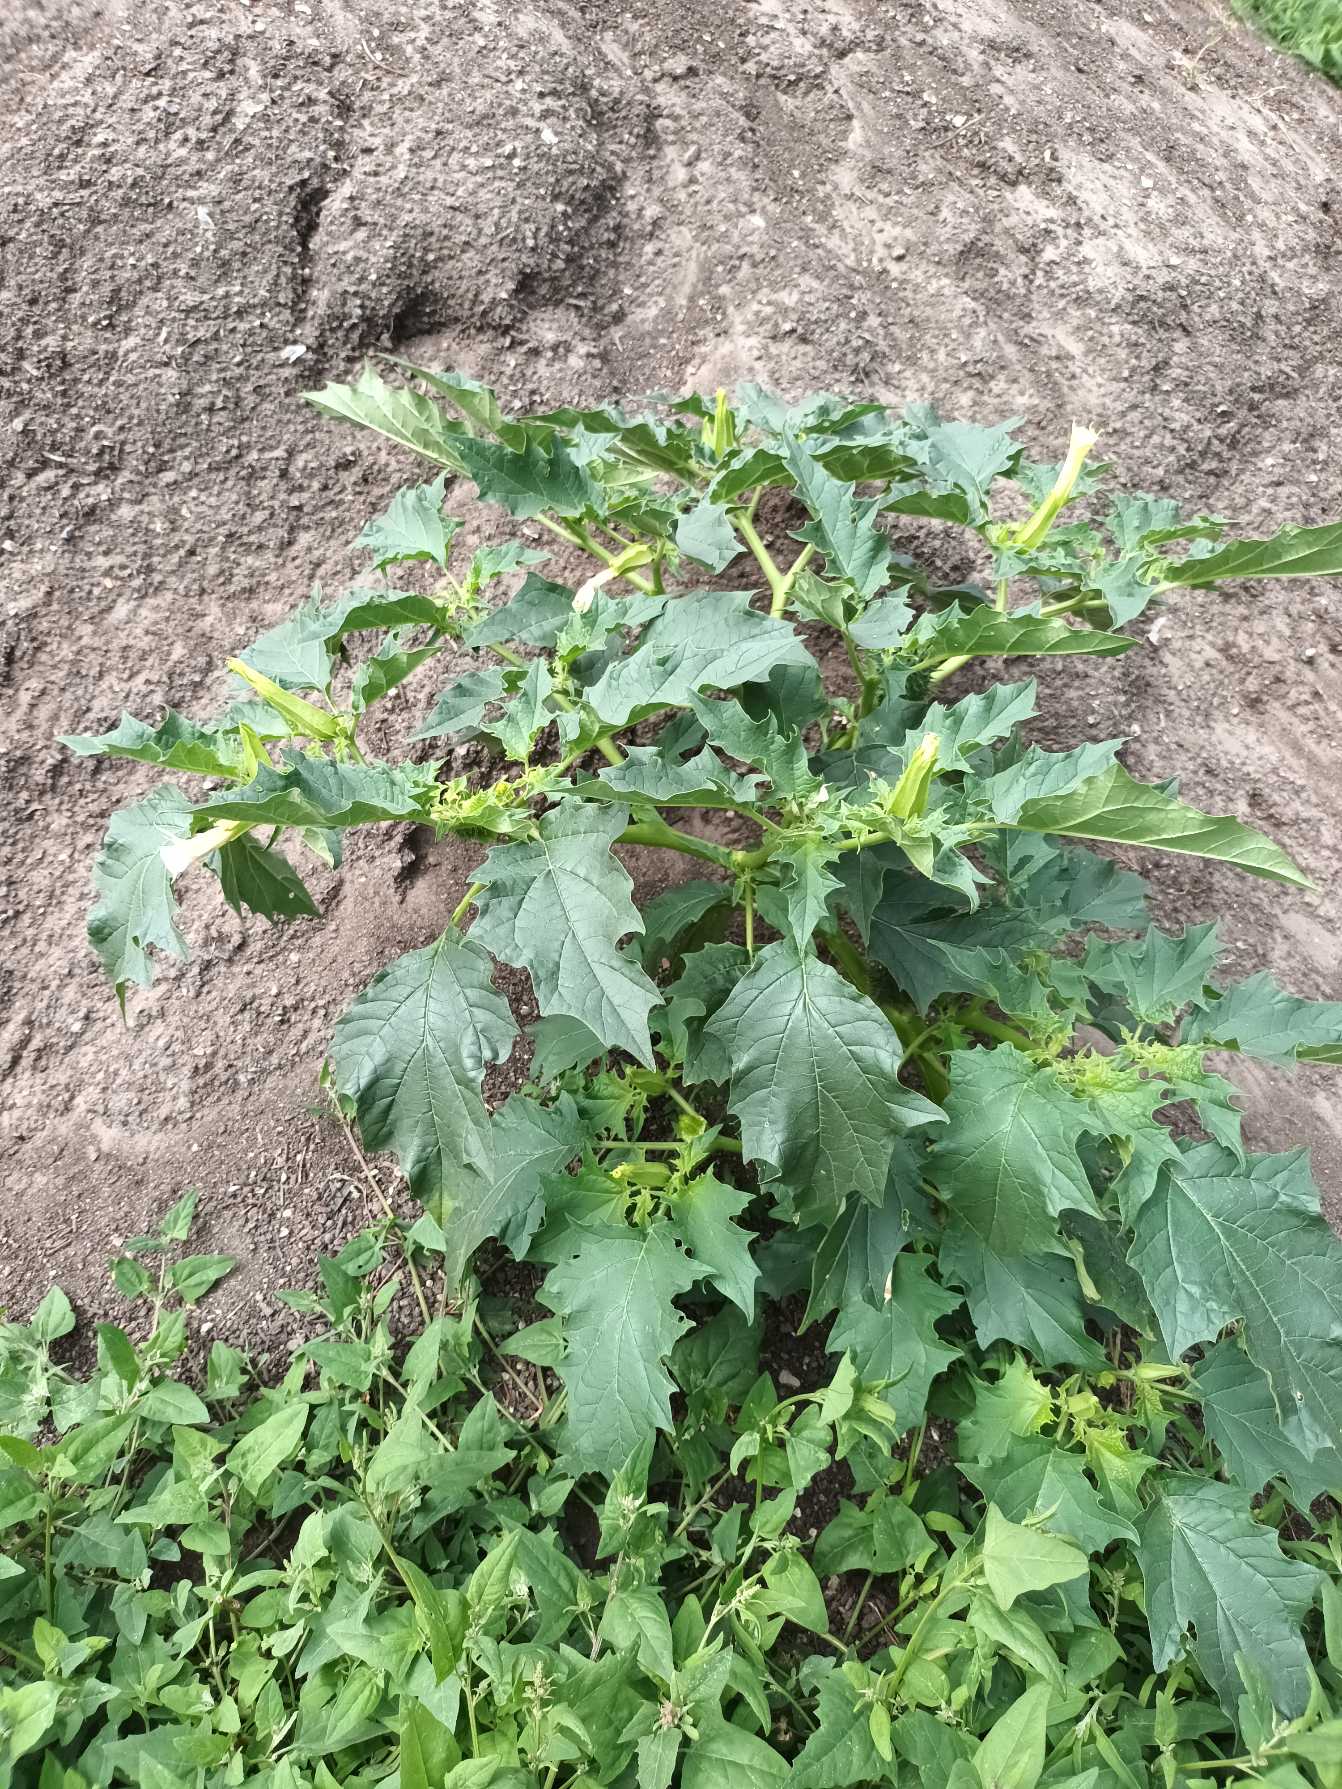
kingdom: Plantae
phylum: Tracheophyta
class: Magnoliopsida
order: Solanales
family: Solanaceae
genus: Datura
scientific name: Datura stramonium
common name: Pigæble
